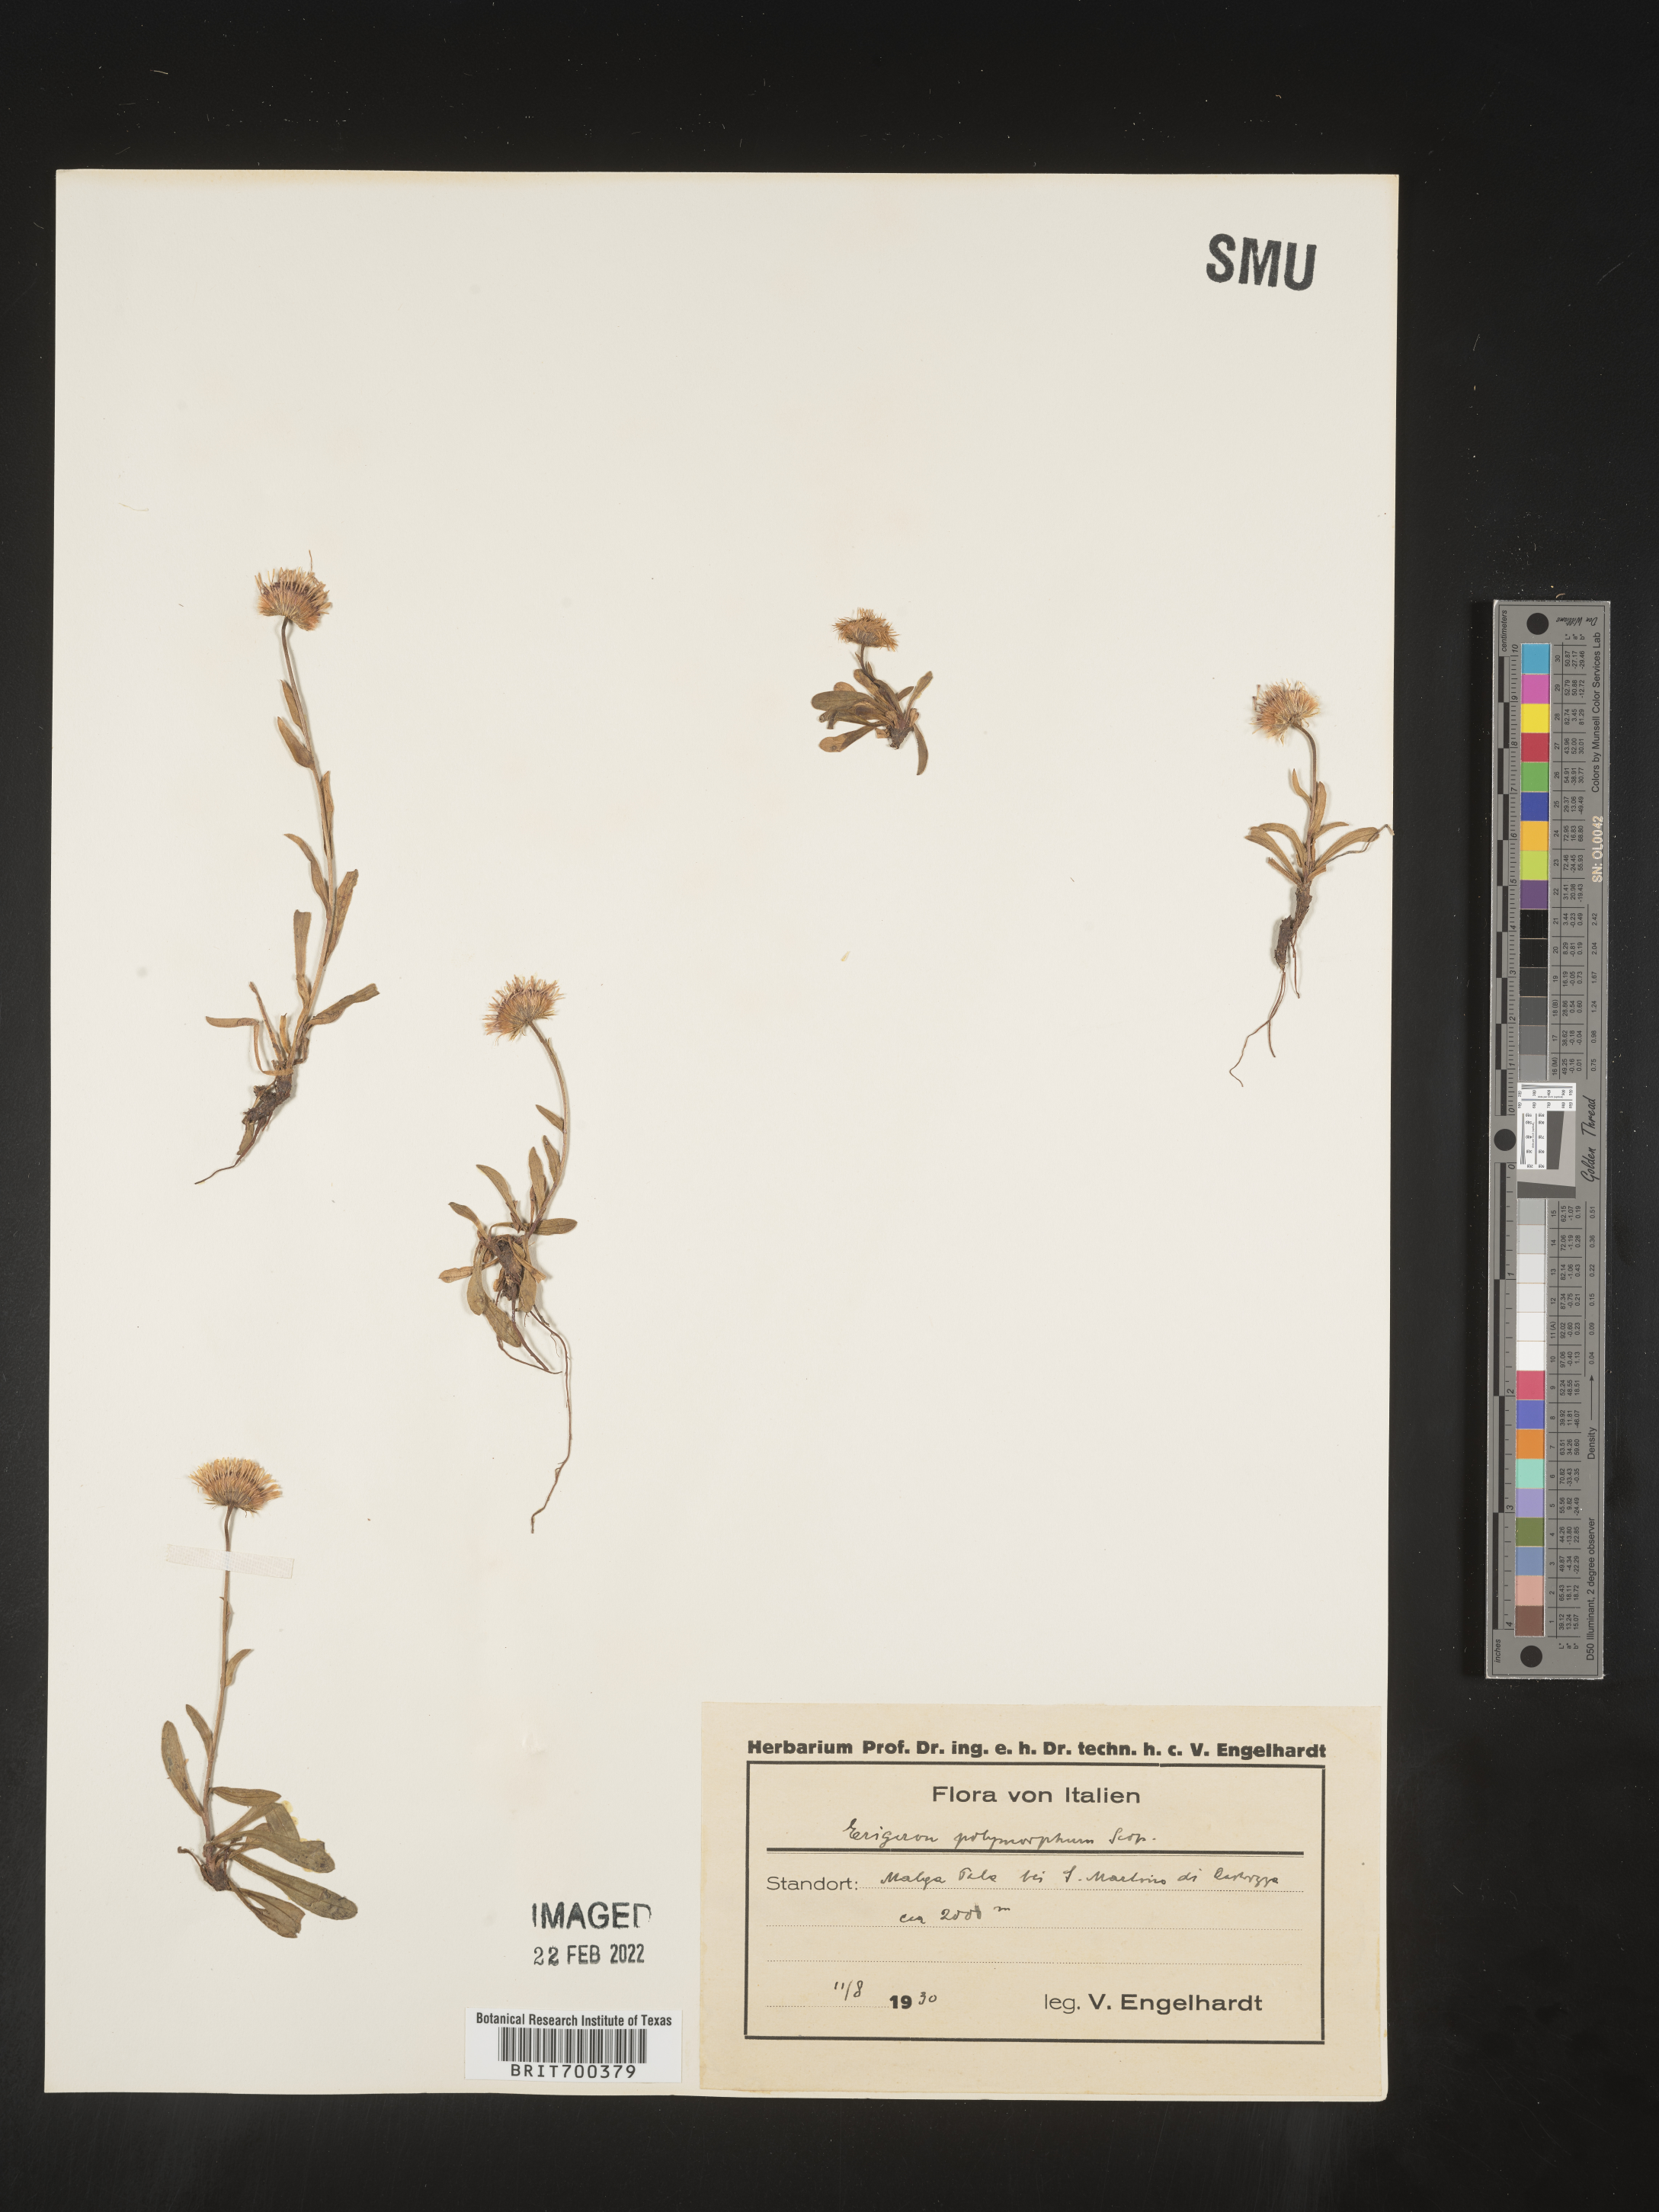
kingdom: Plantae
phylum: Tracheophyta
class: Magnoliopsida
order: Asterales
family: Asteraceae
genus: Erigeron
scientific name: Erigeron
